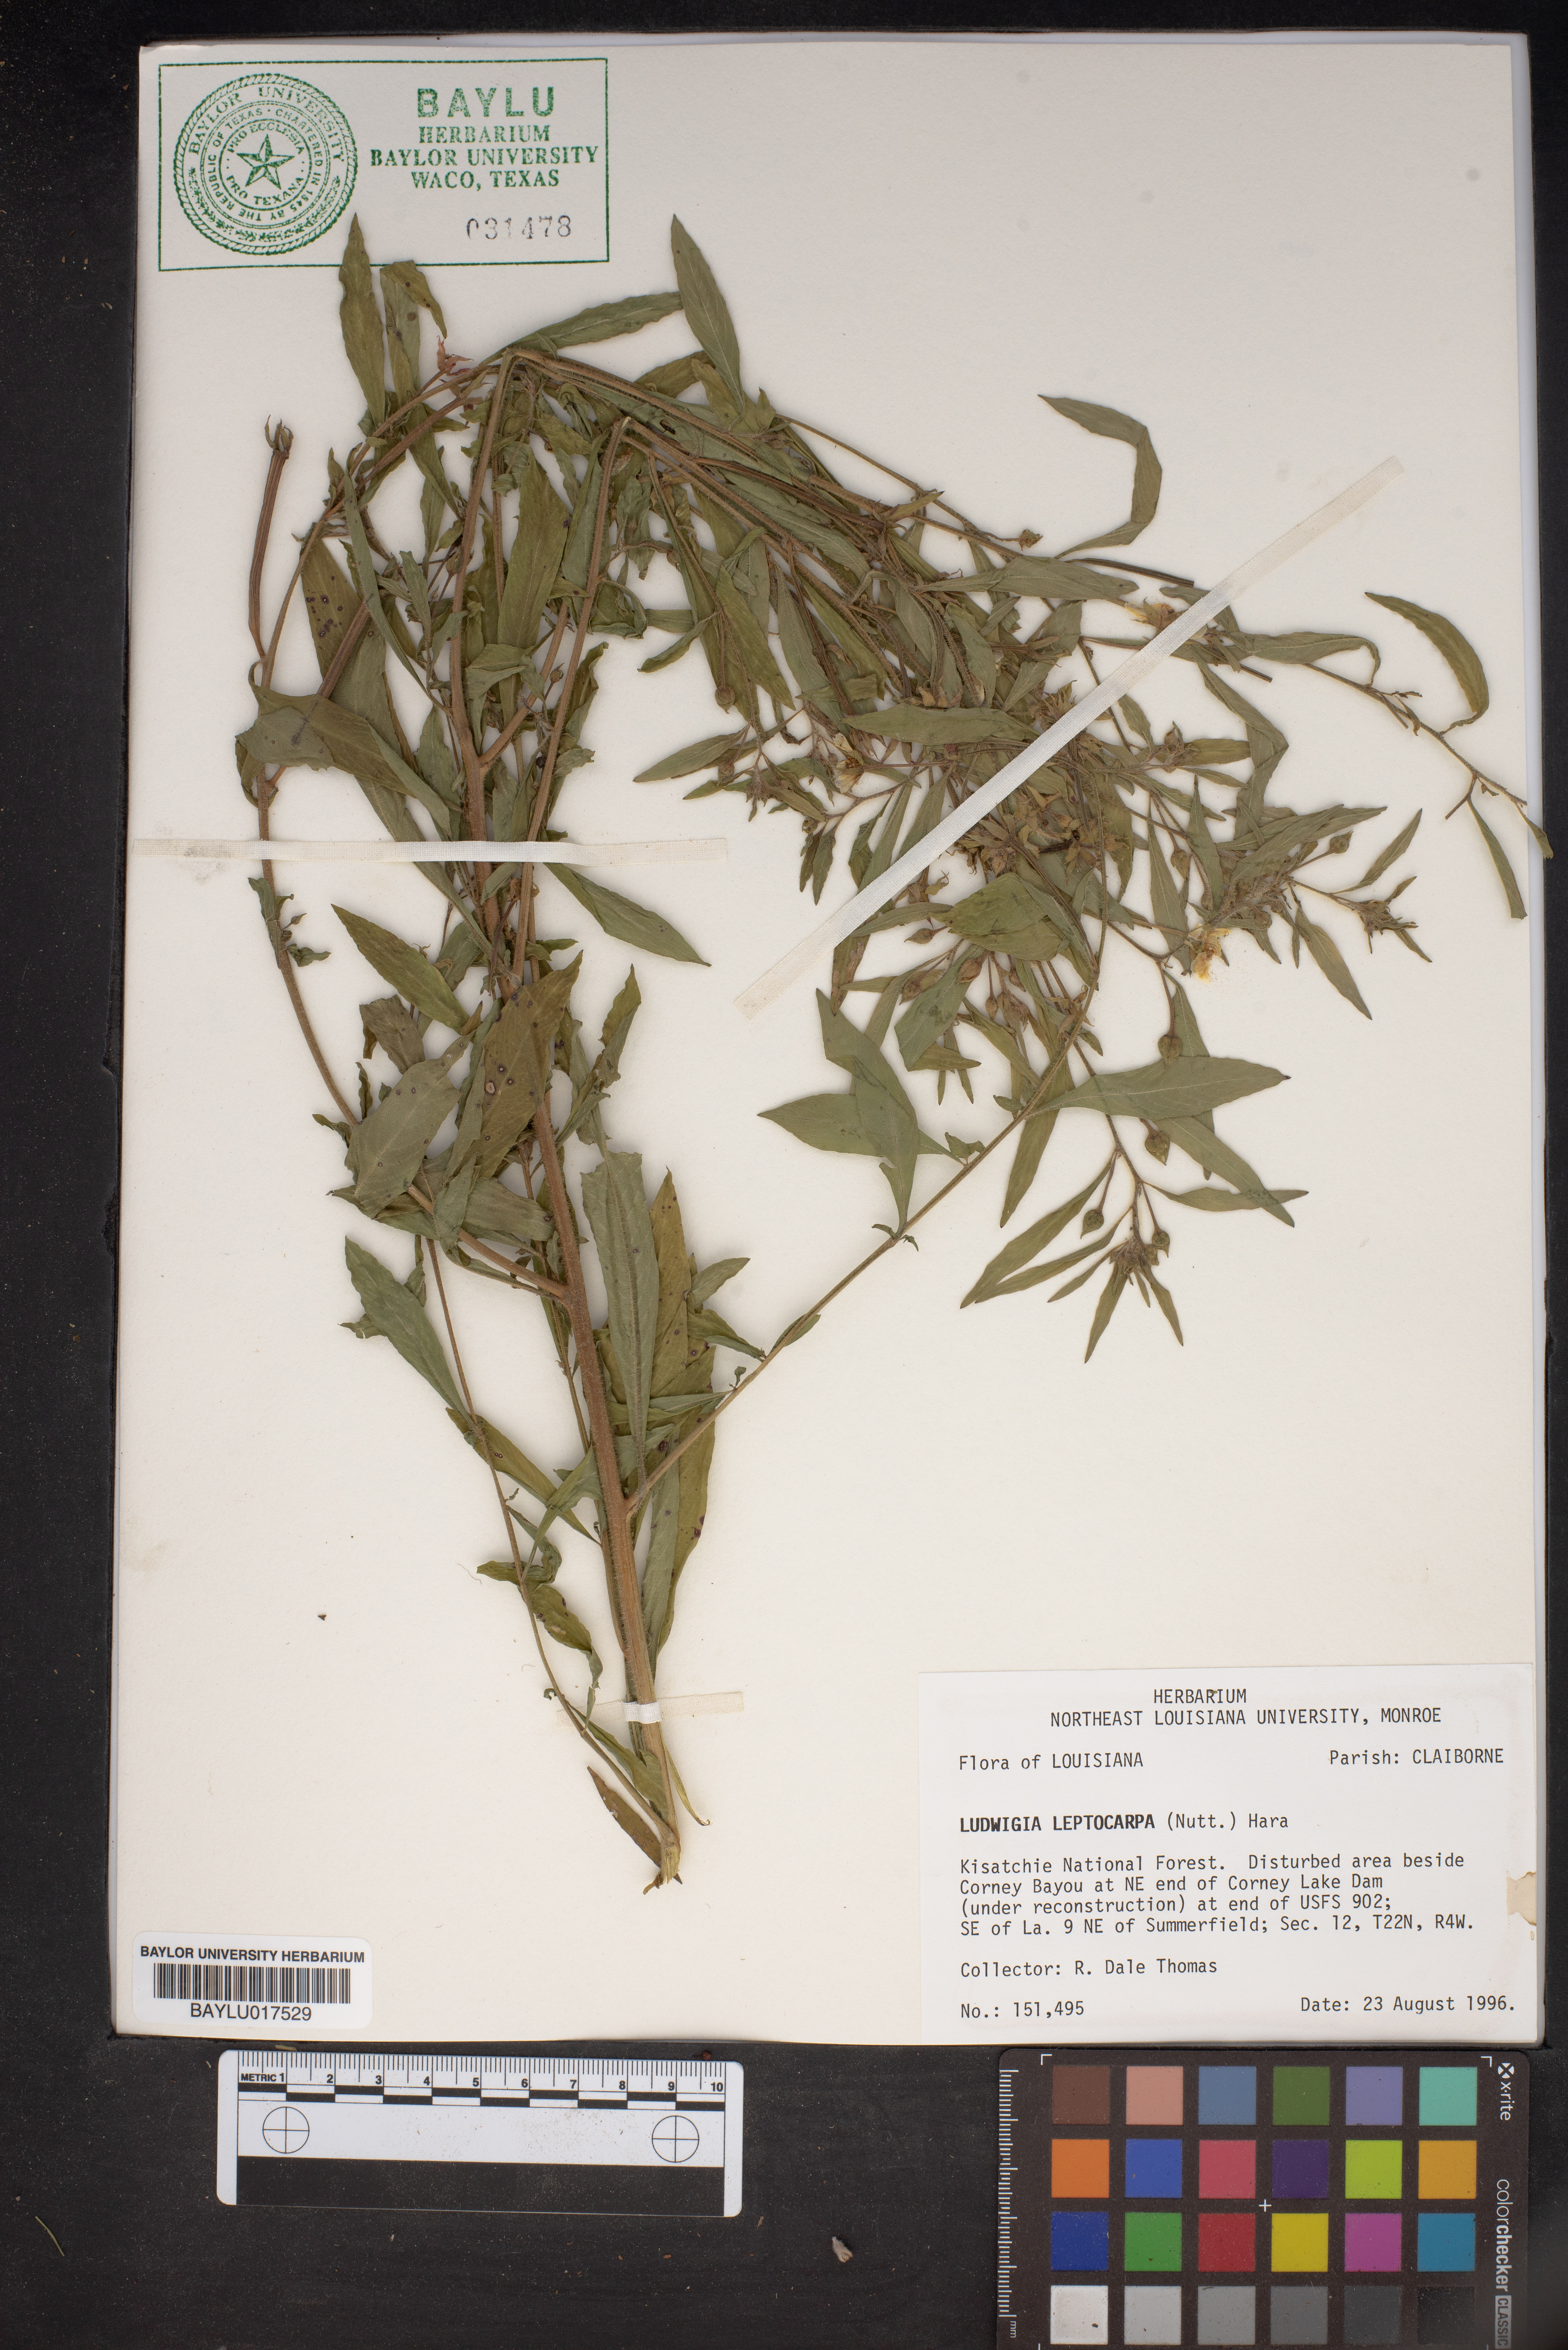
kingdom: Plantae
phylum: Tracheophyta
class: Magnoliopsida
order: Myrtales
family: Onagraceae
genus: Ludwigia
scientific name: Ludwigia leptocarpa
